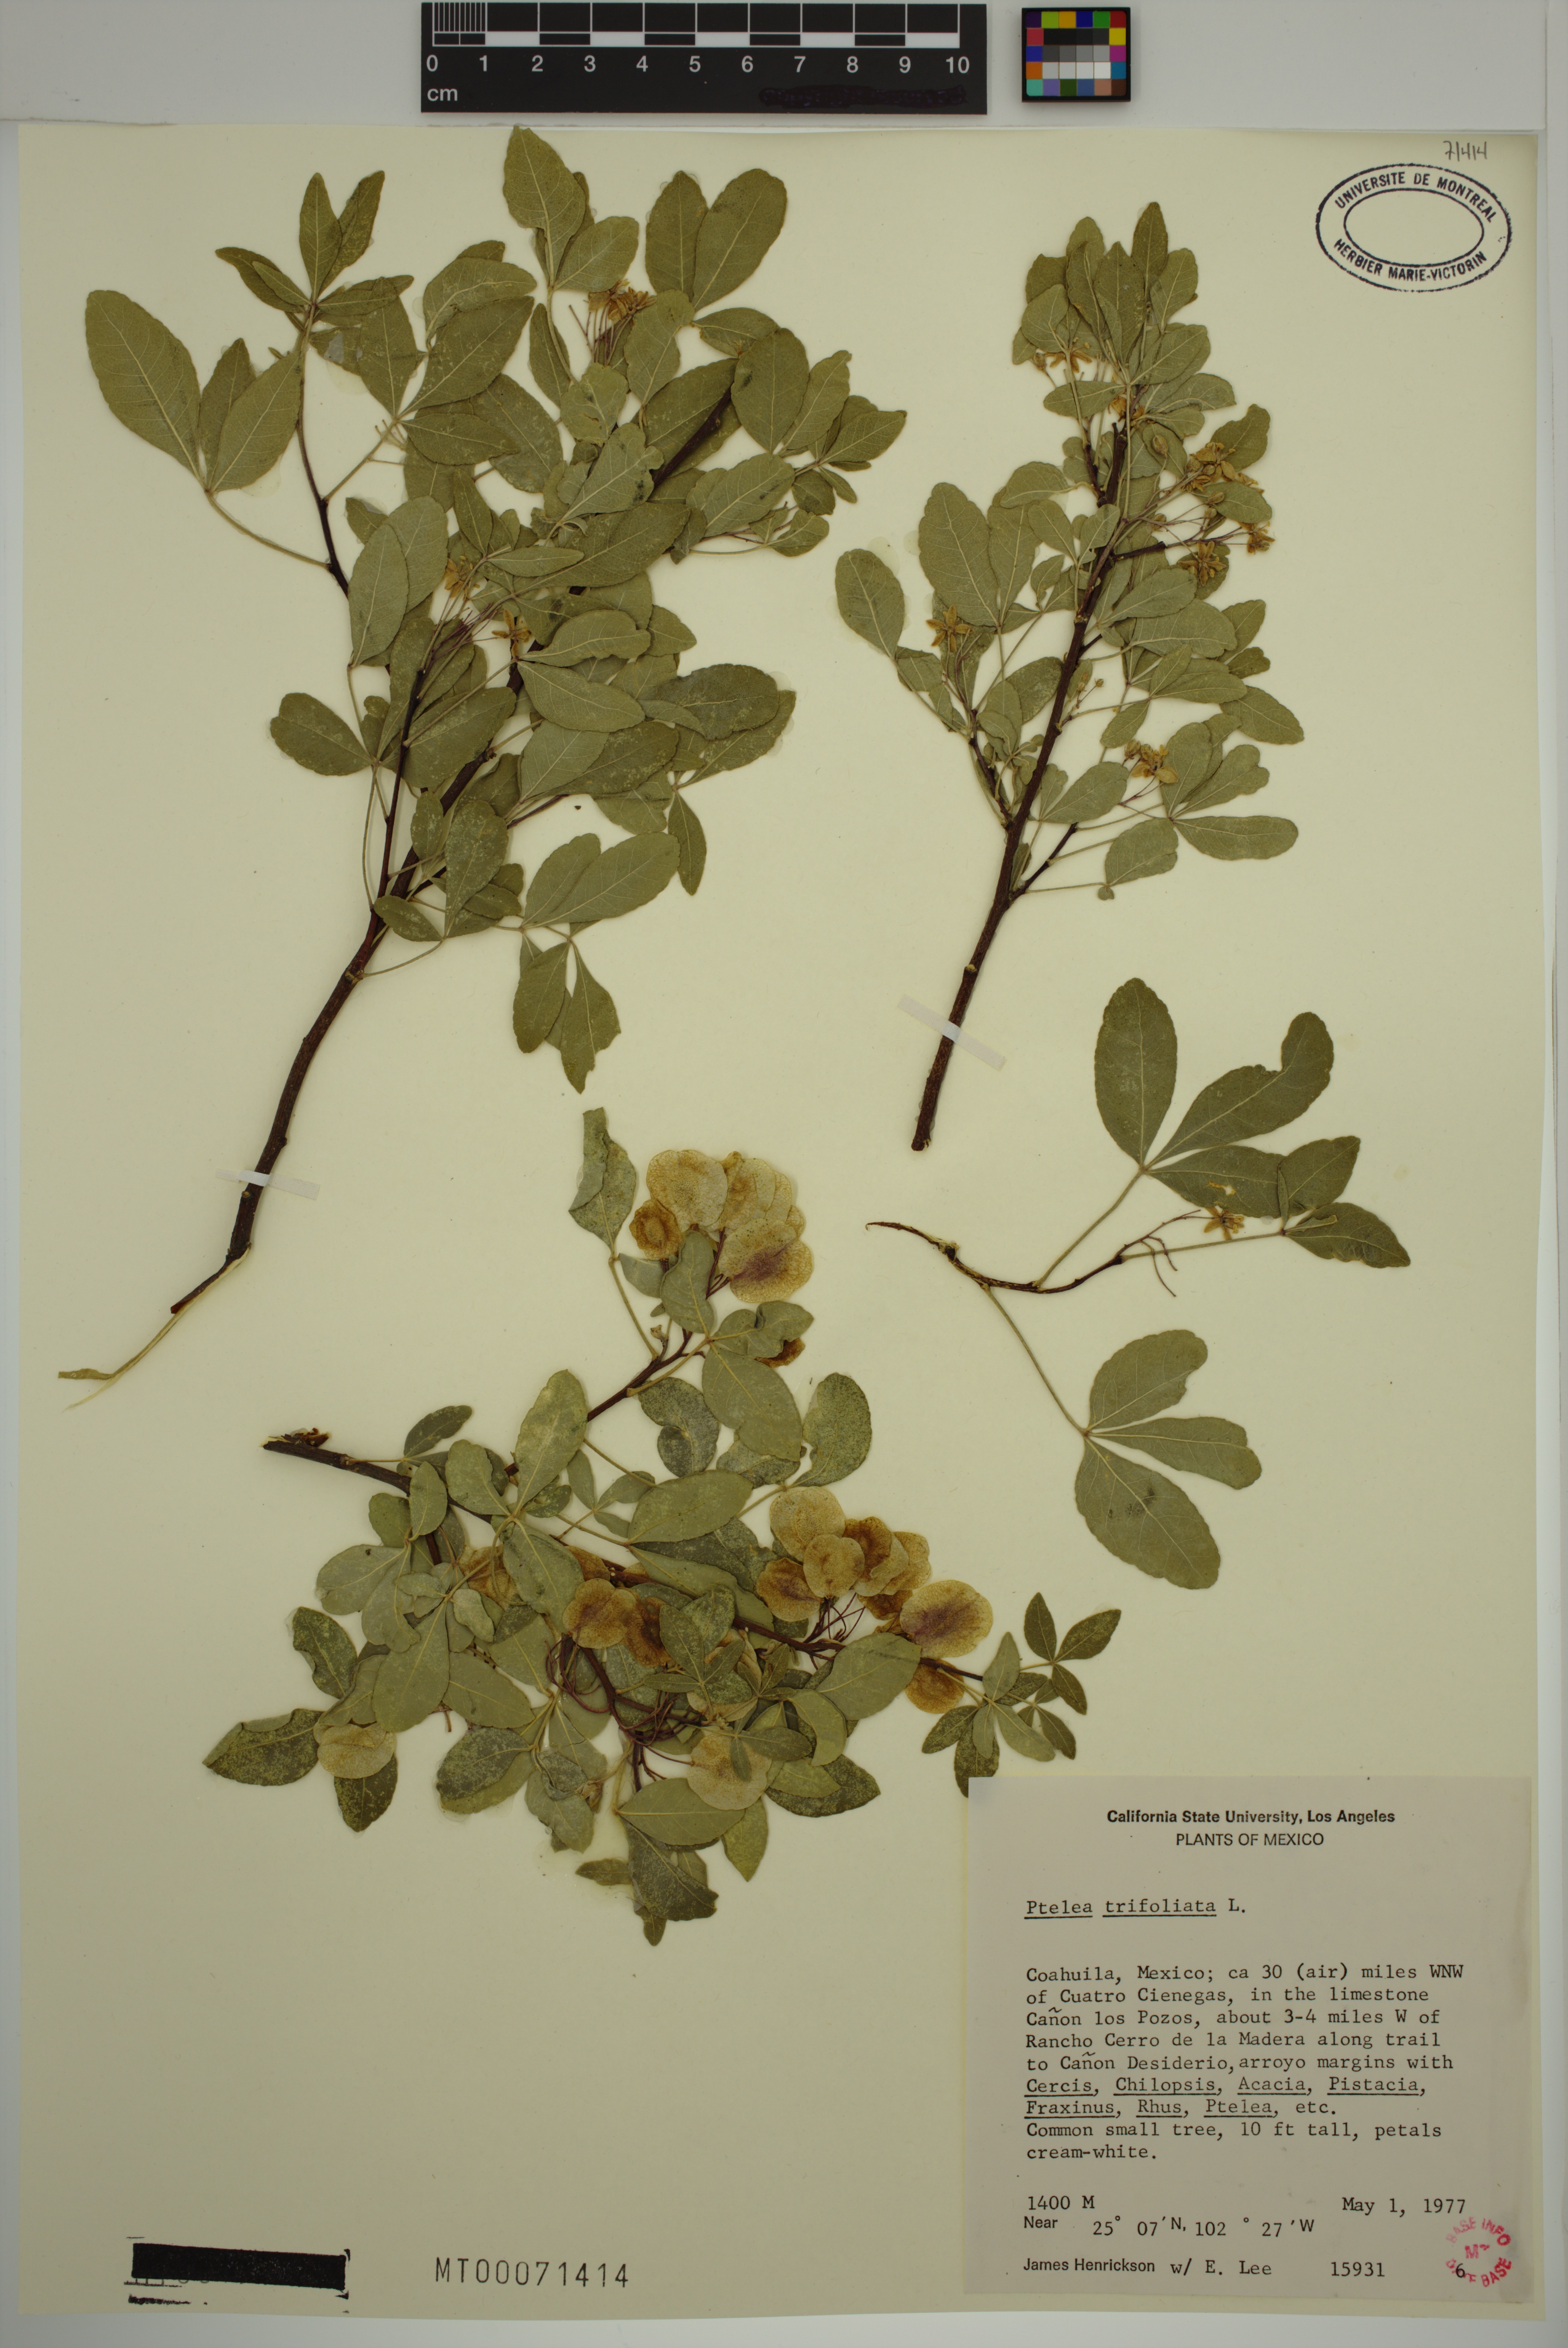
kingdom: Plantae
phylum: Tracheophyta
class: Magnoliopsida
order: Sapindales
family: Rutaceae
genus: Ptelea
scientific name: Ptelea trifoliata
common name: Common hop-tree
